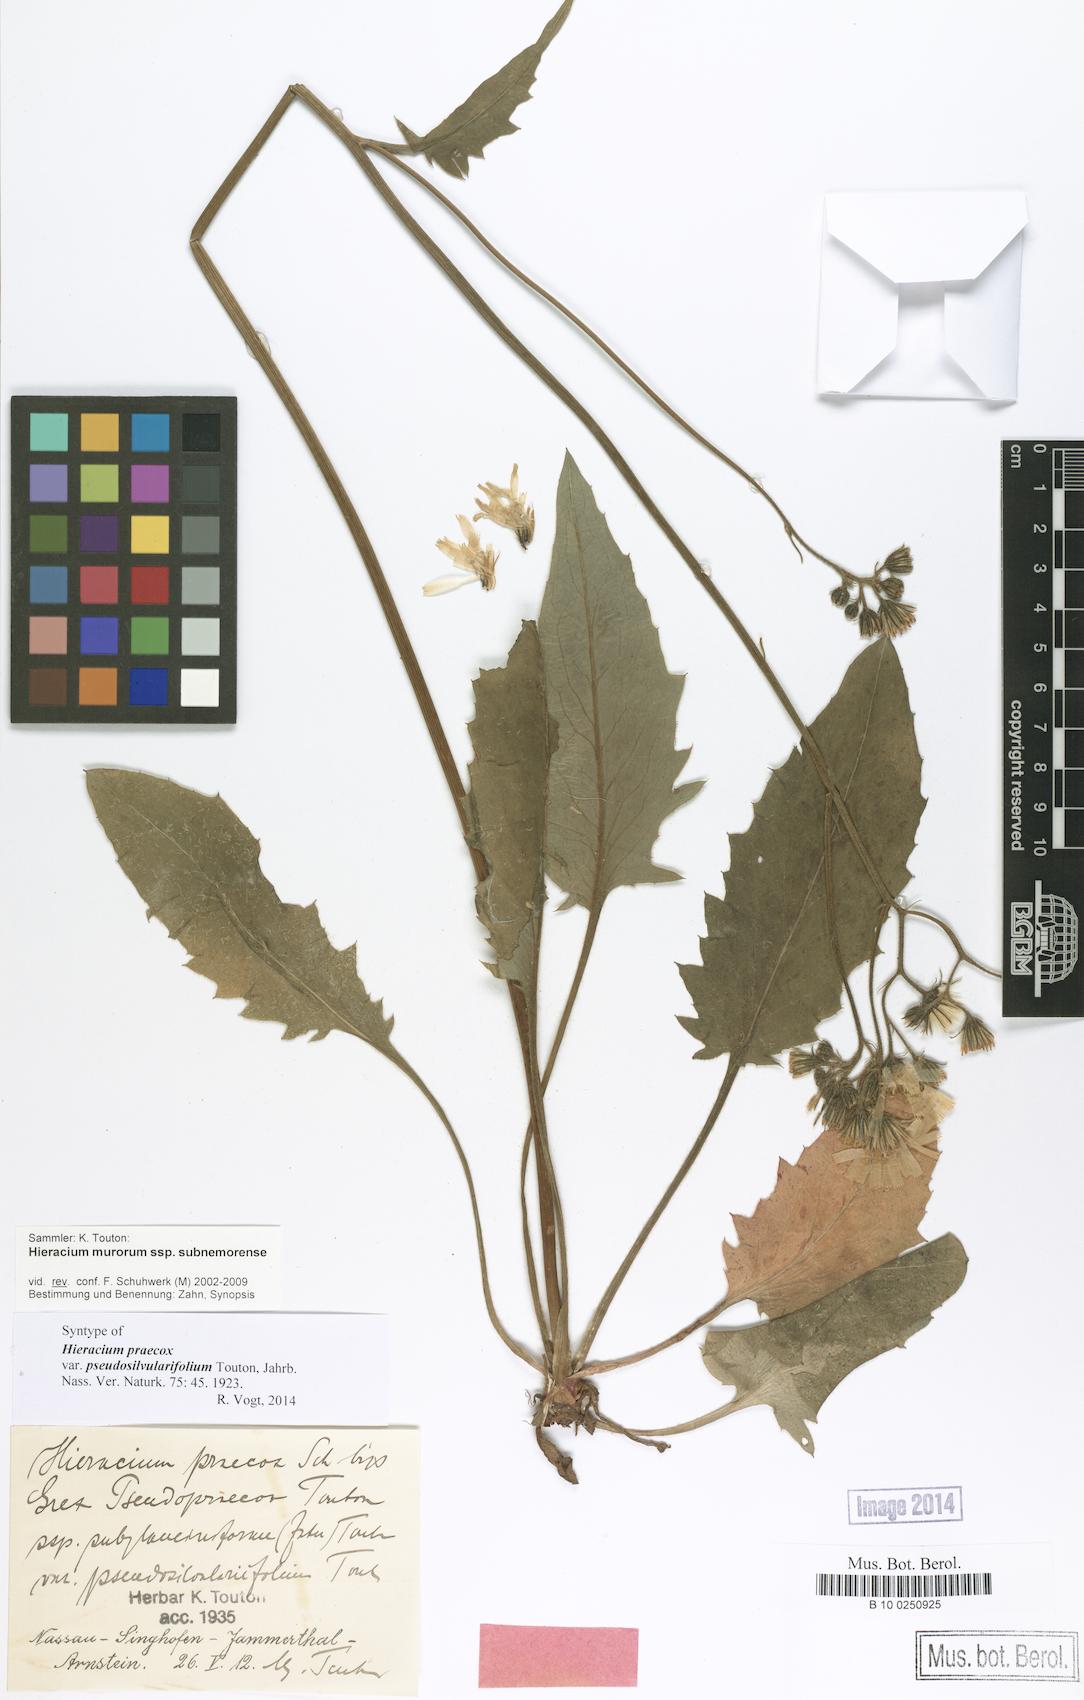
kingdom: Plantae
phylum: Tracheophyta
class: Magnoliopsida
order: Asterales
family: Asteraceae
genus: Hieracium
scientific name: Hieracium praecox
